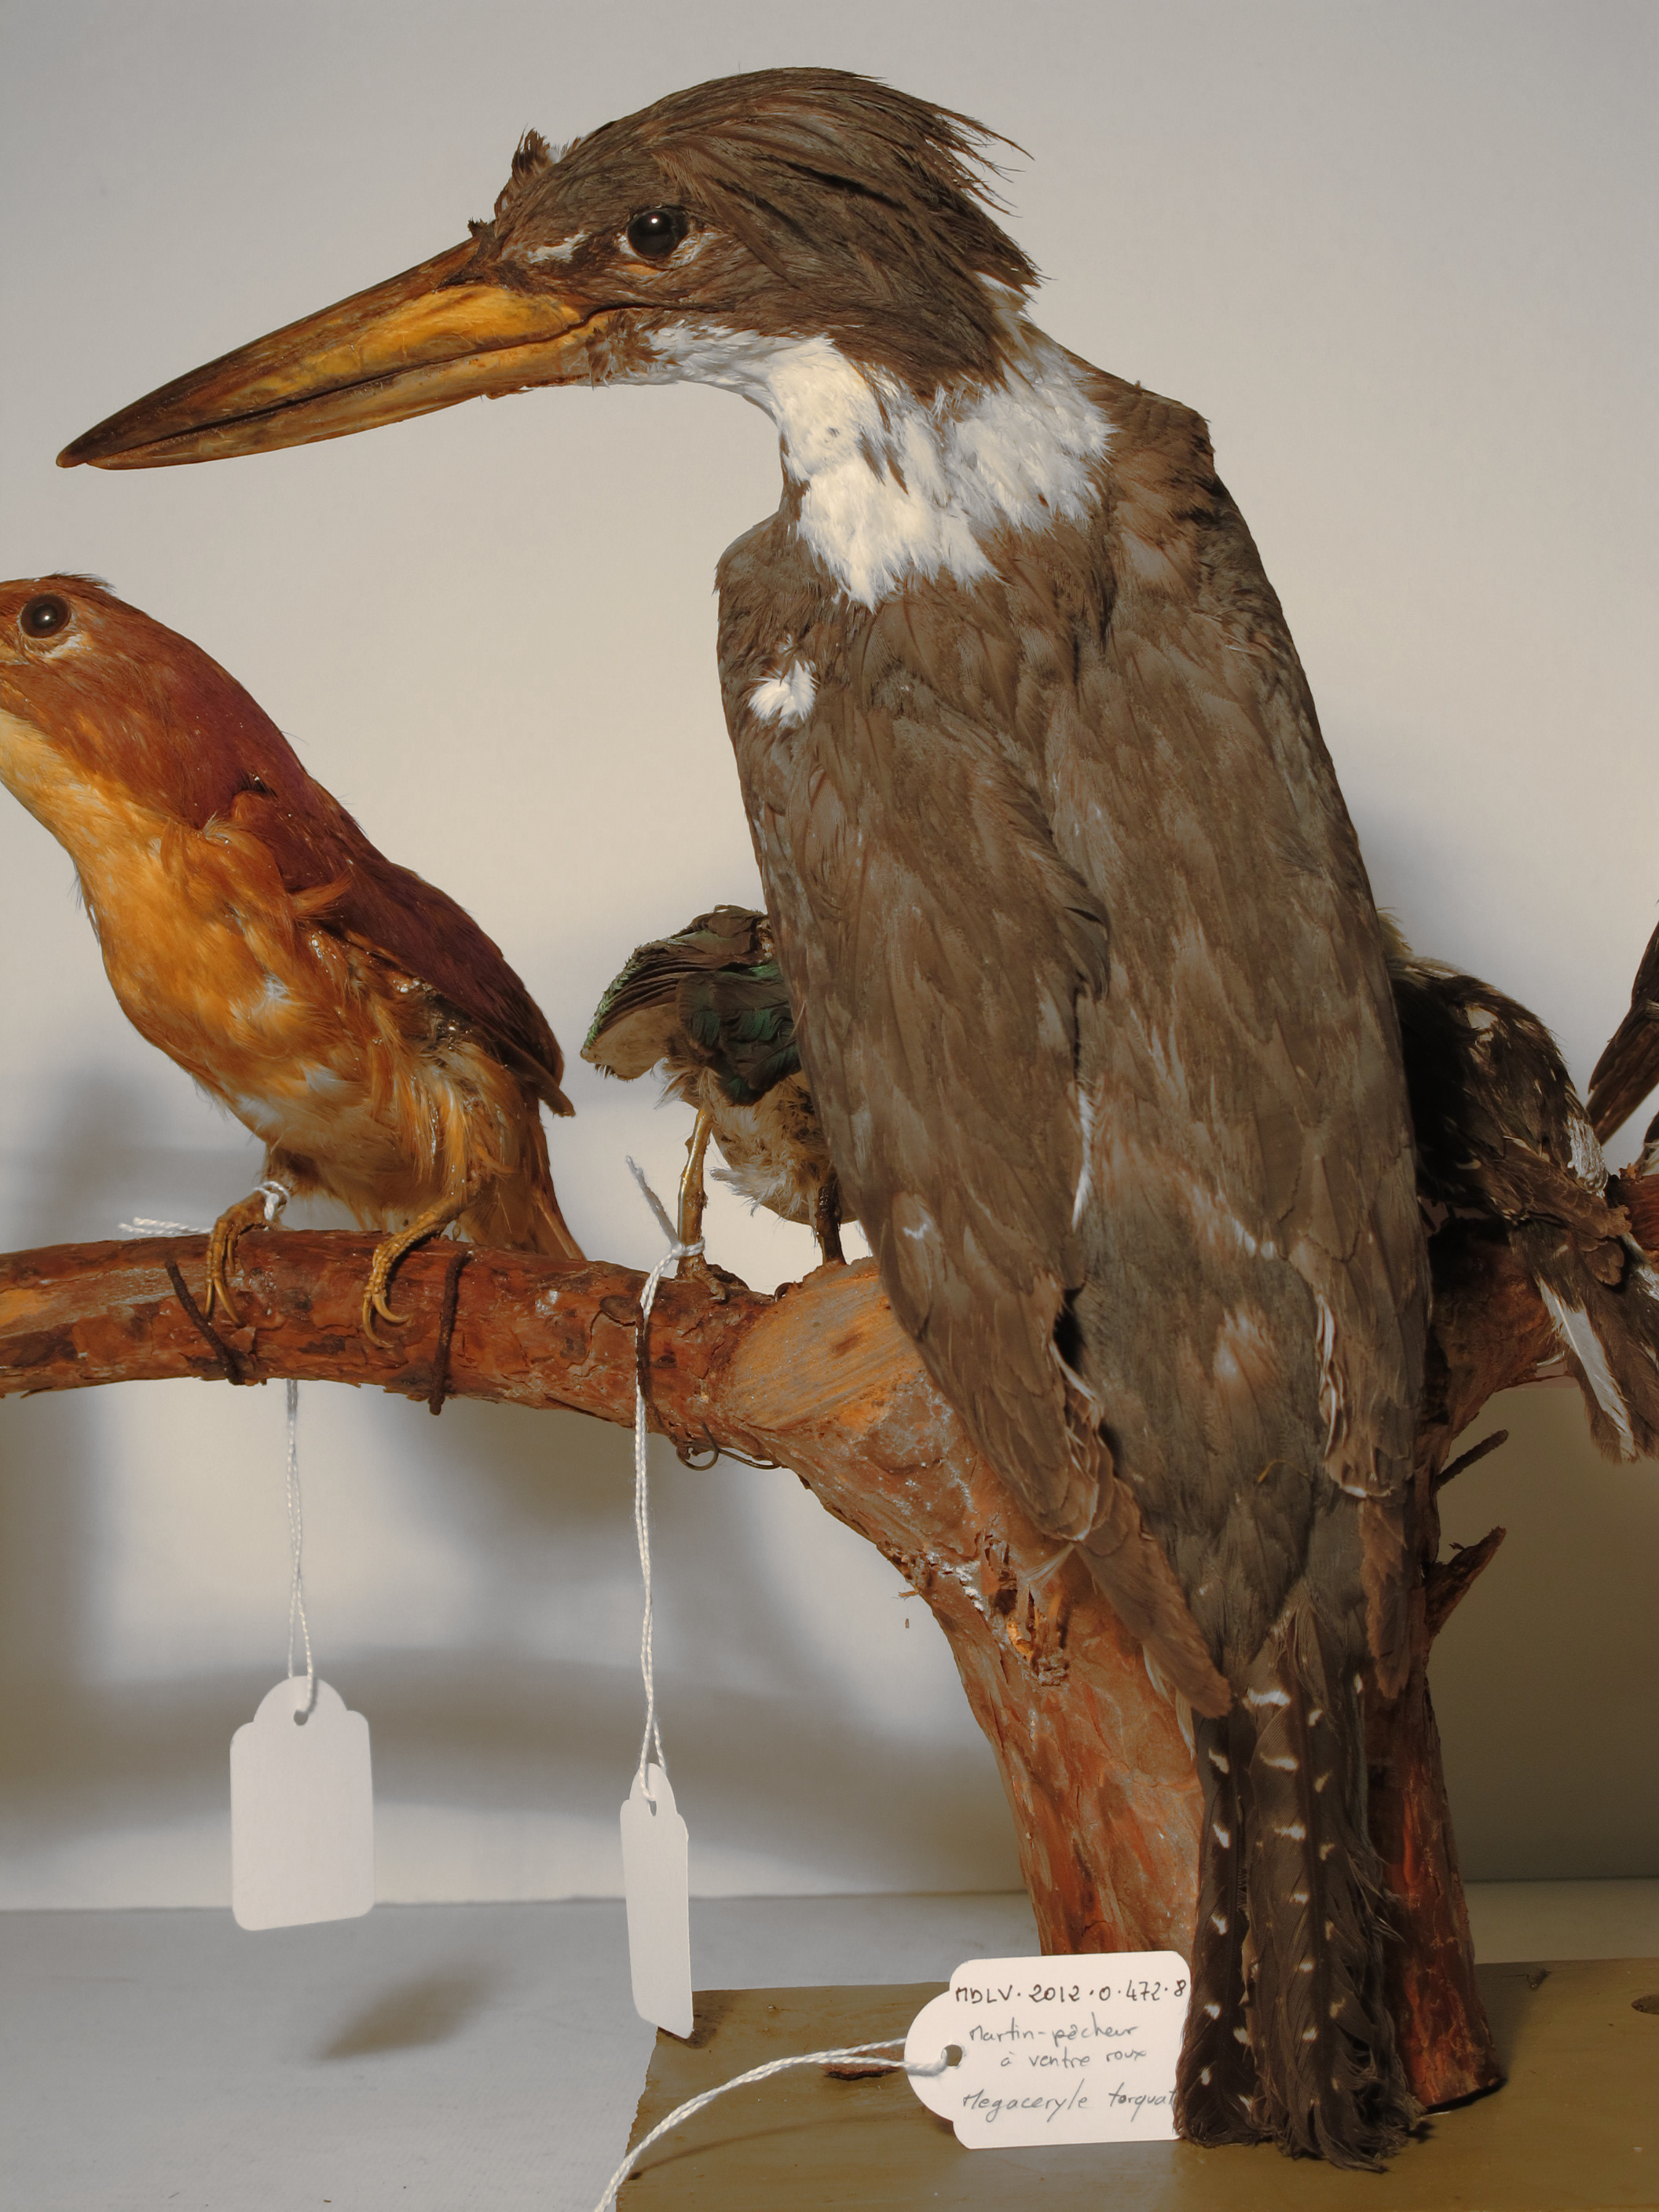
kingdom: Animalia
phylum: Chordata
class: Aves
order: Coraciiformes
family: Alcedinidae
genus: Megaceryle
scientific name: Megaceryle torquata
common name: Ringed Kingfisher
